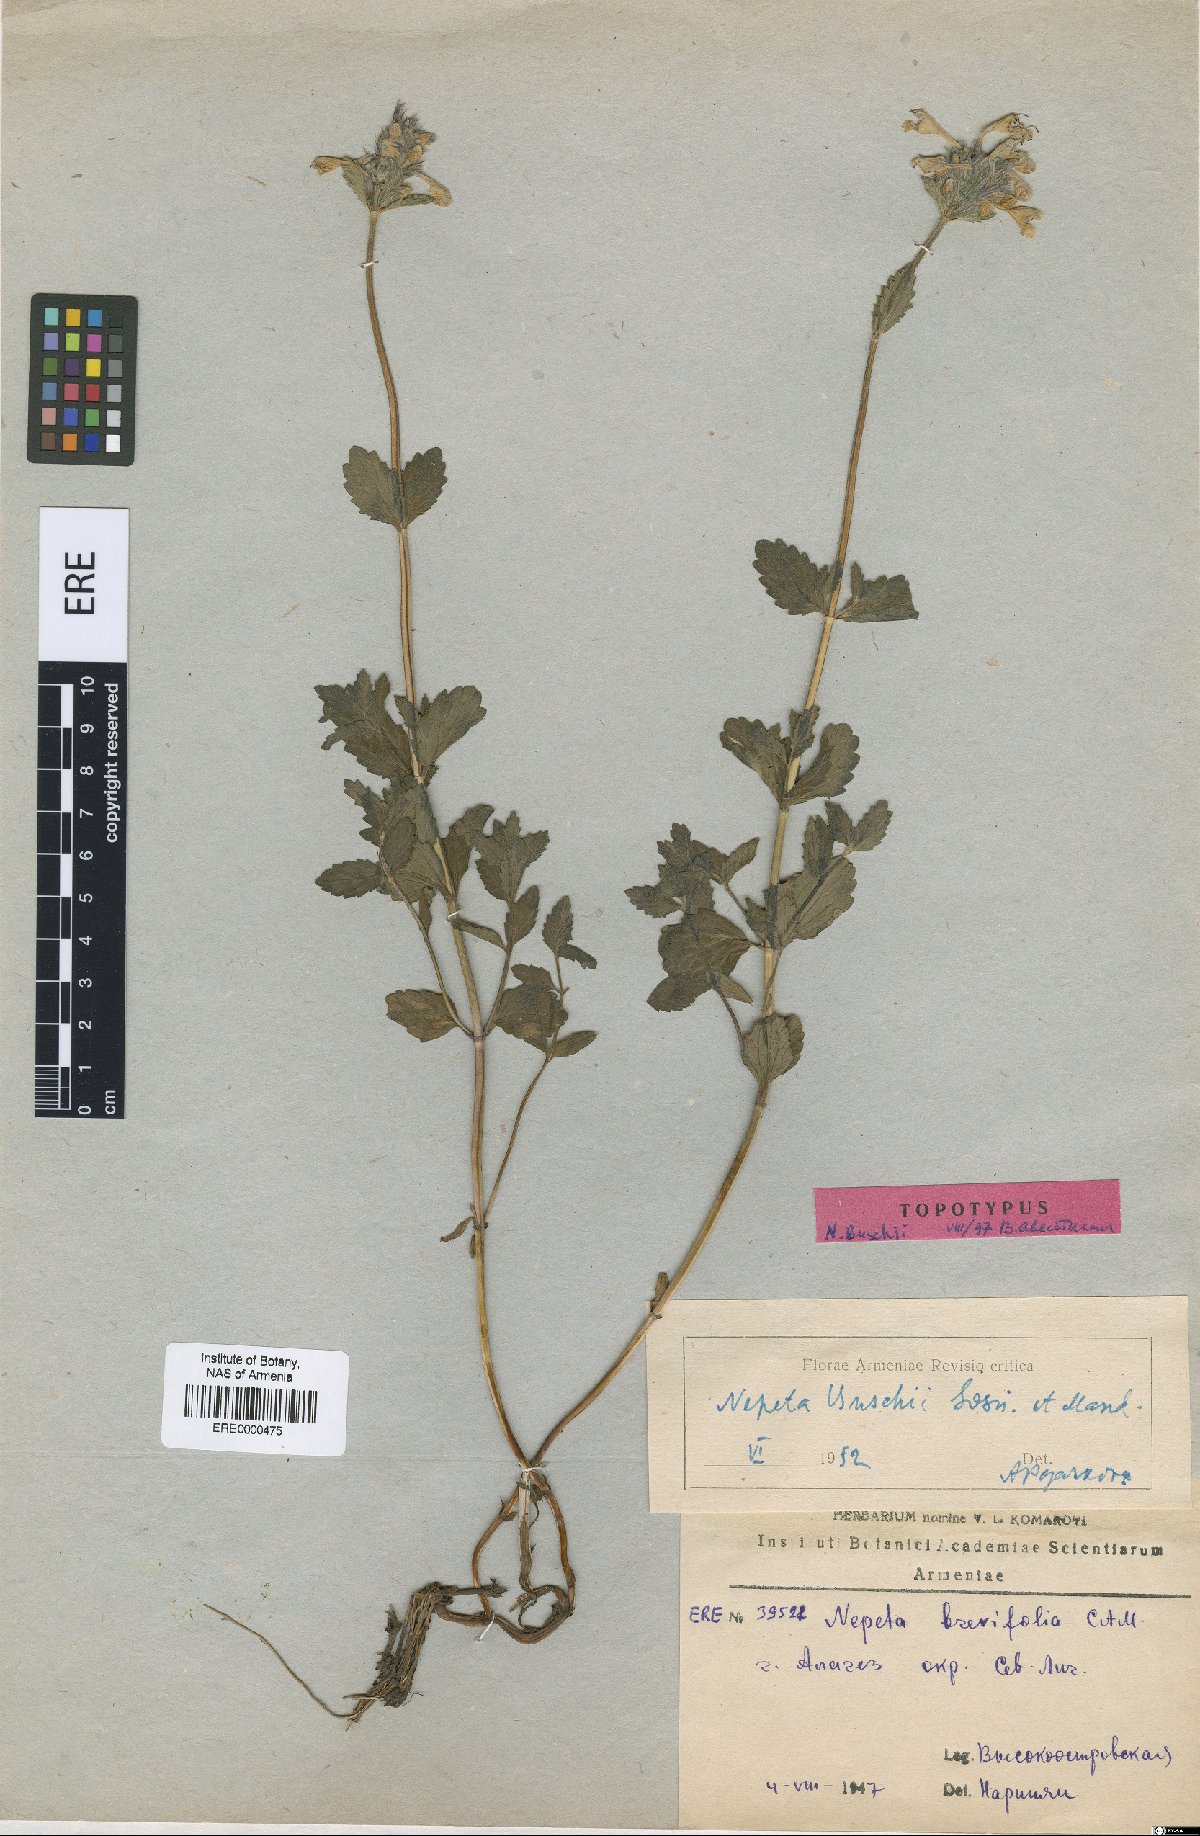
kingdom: Plantae
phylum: Tracheophyta
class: Magnoliopsida
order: Lamiales
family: Lamiaceae
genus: Nepeta
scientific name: Nepeta supina
